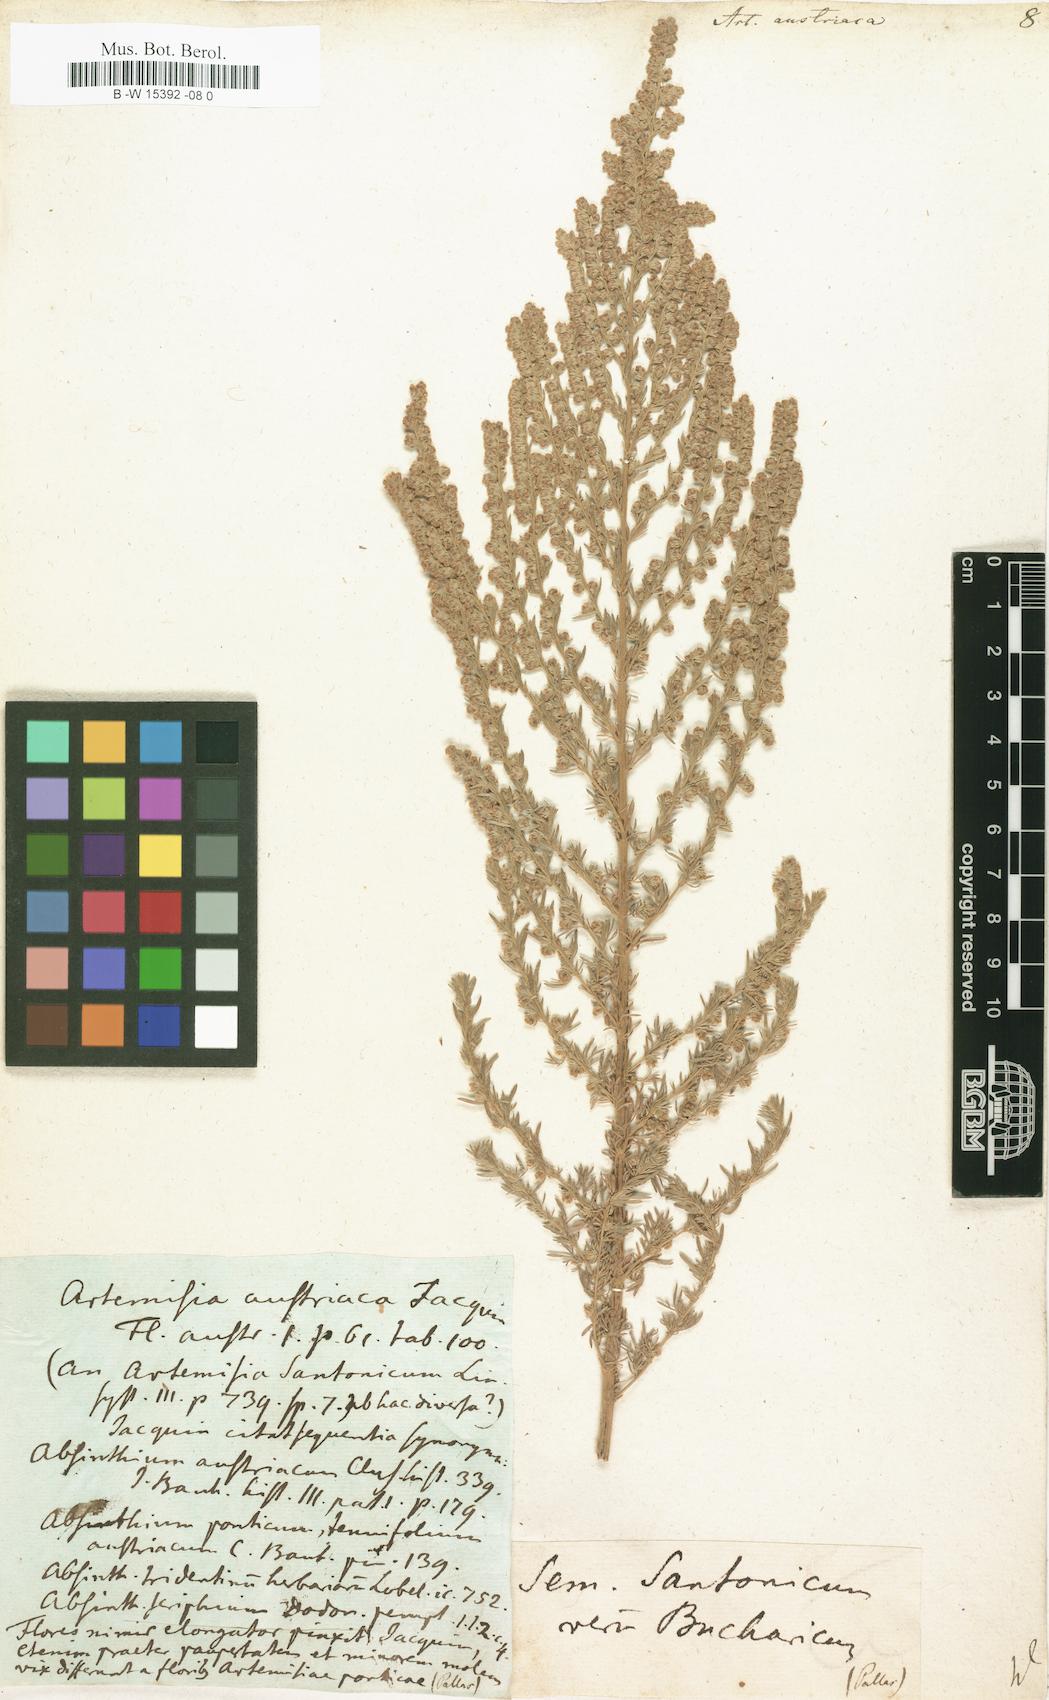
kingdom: Plantae
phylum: Tracheophyta
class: Magnoliopsida
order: Asterales
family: Asteraceae
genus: Artemisia
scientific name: Artemisia austriaca
